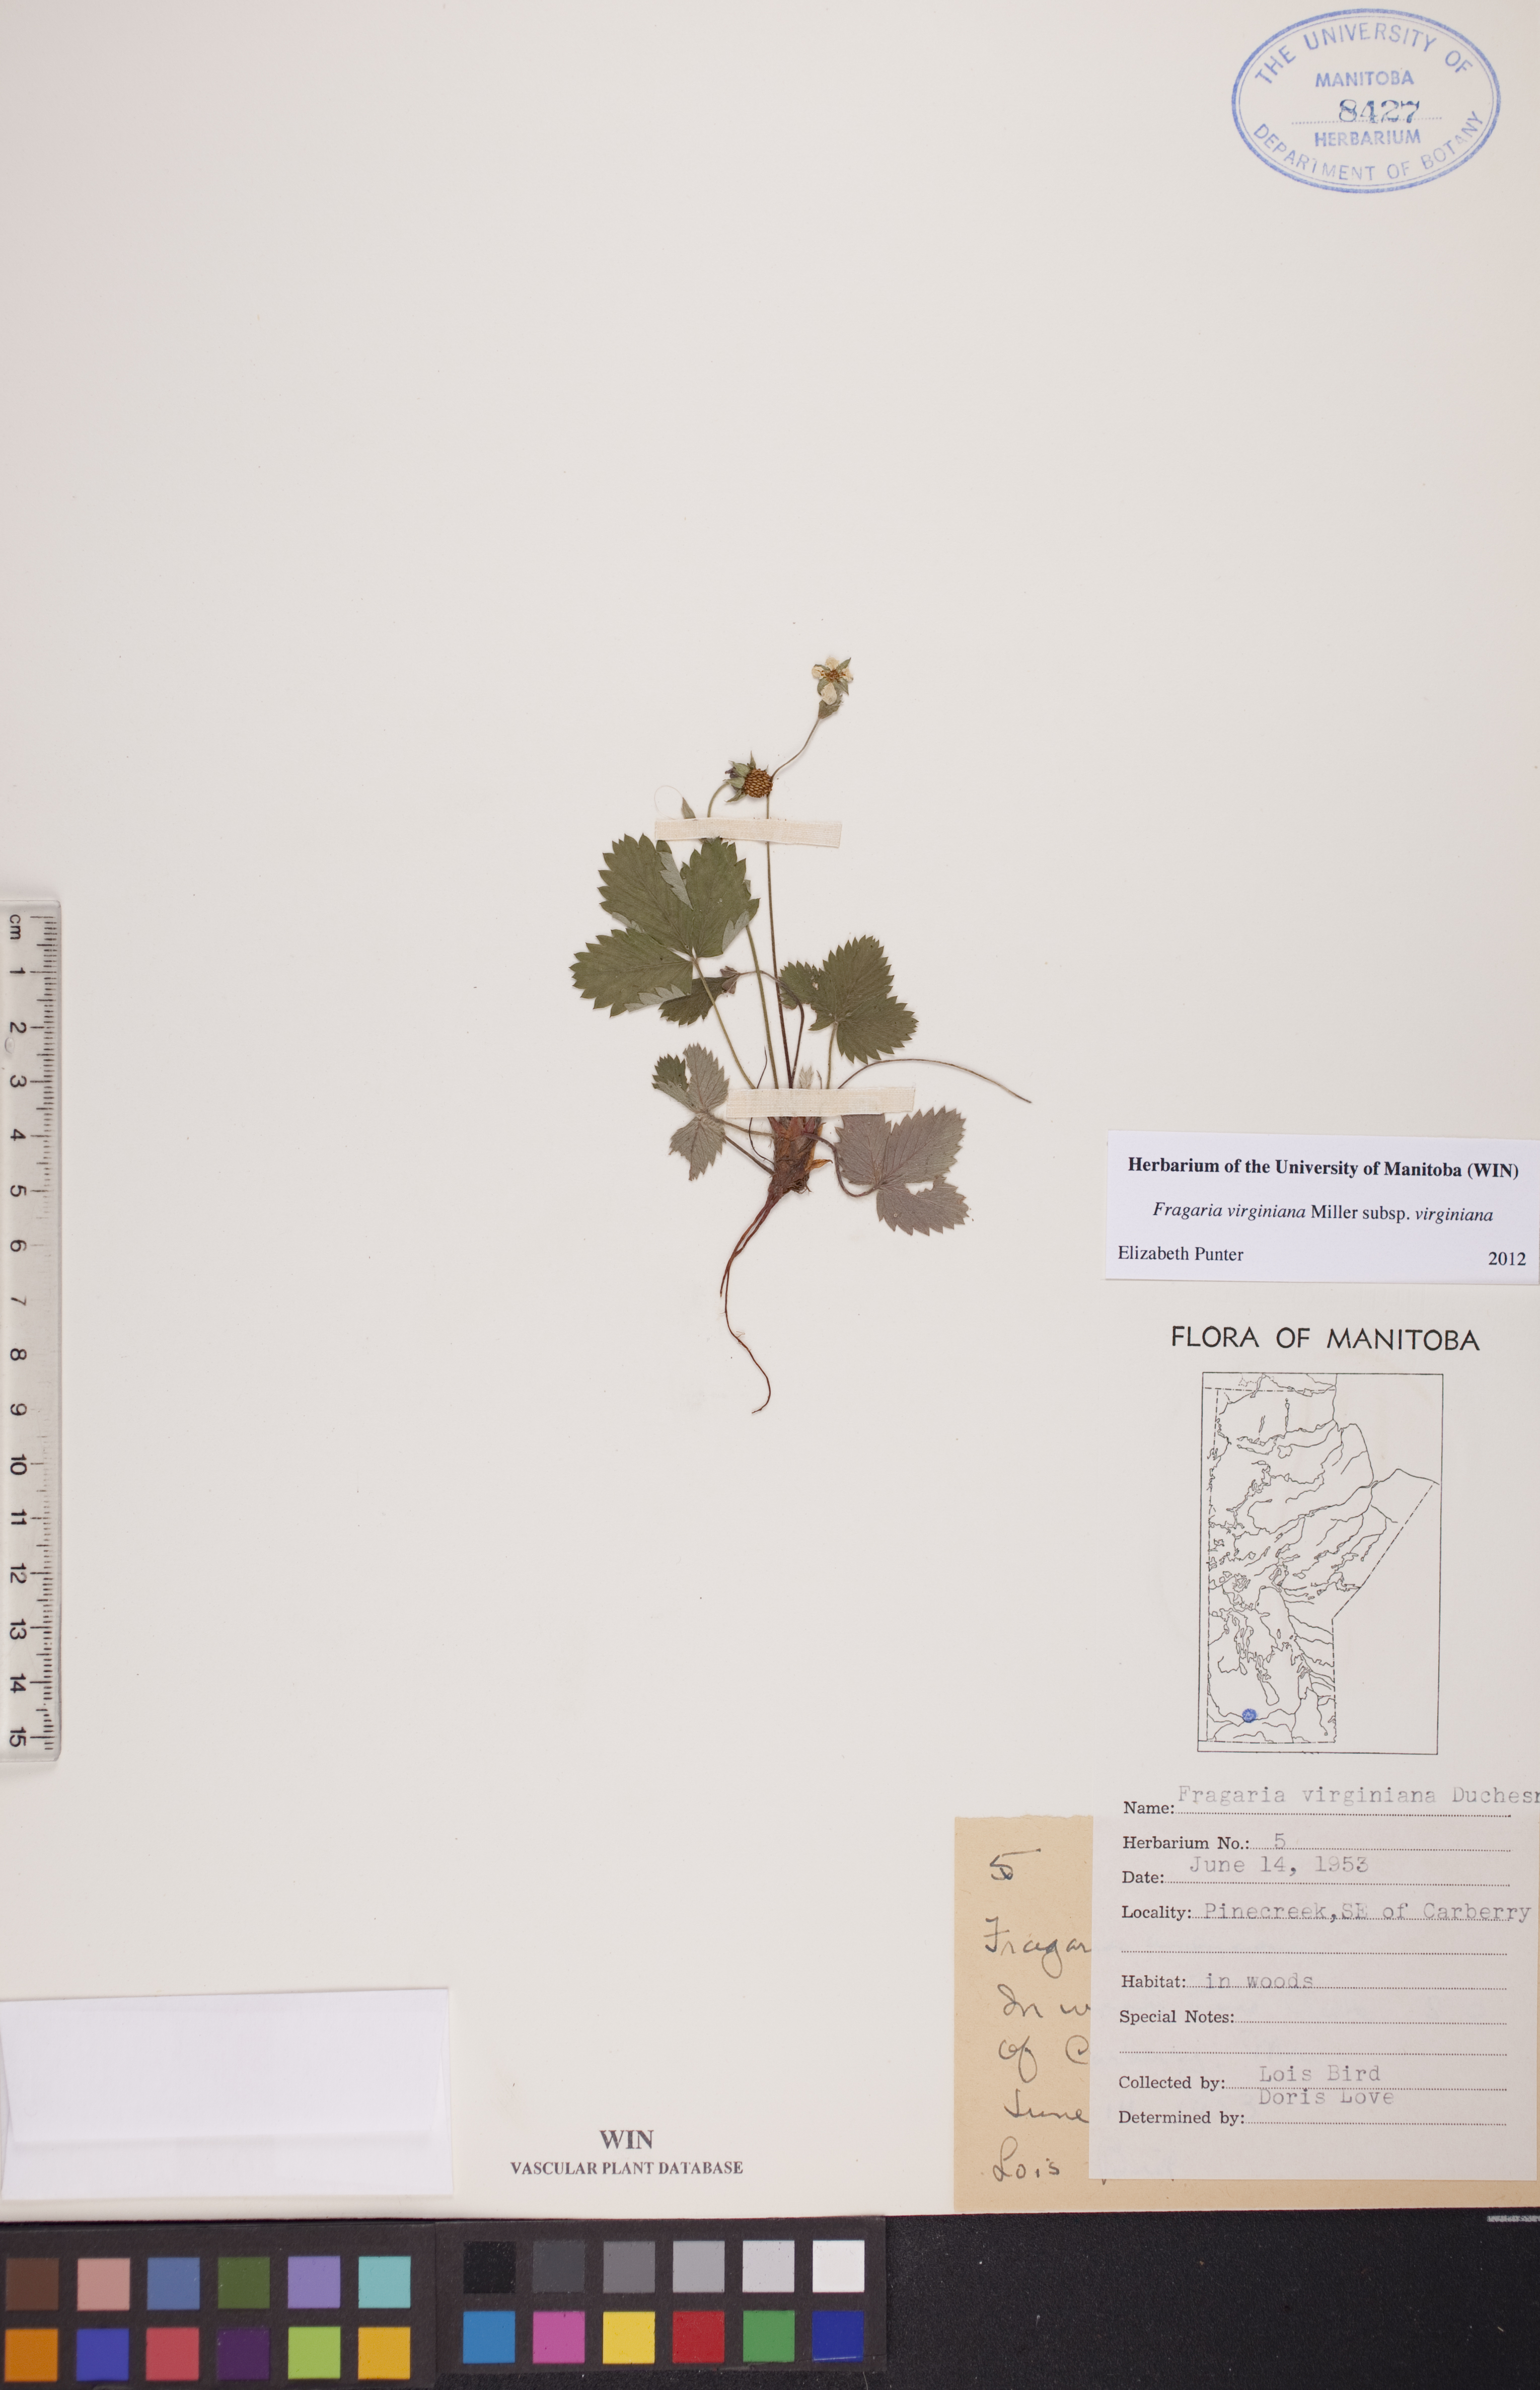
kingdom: Plantae
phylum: Tracheophyta
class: Magnoliopsida
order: Rosales
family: Rosaceae
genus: Fragaria
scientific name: Fragaria virginiana
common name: Thickleaved wild strawberry
